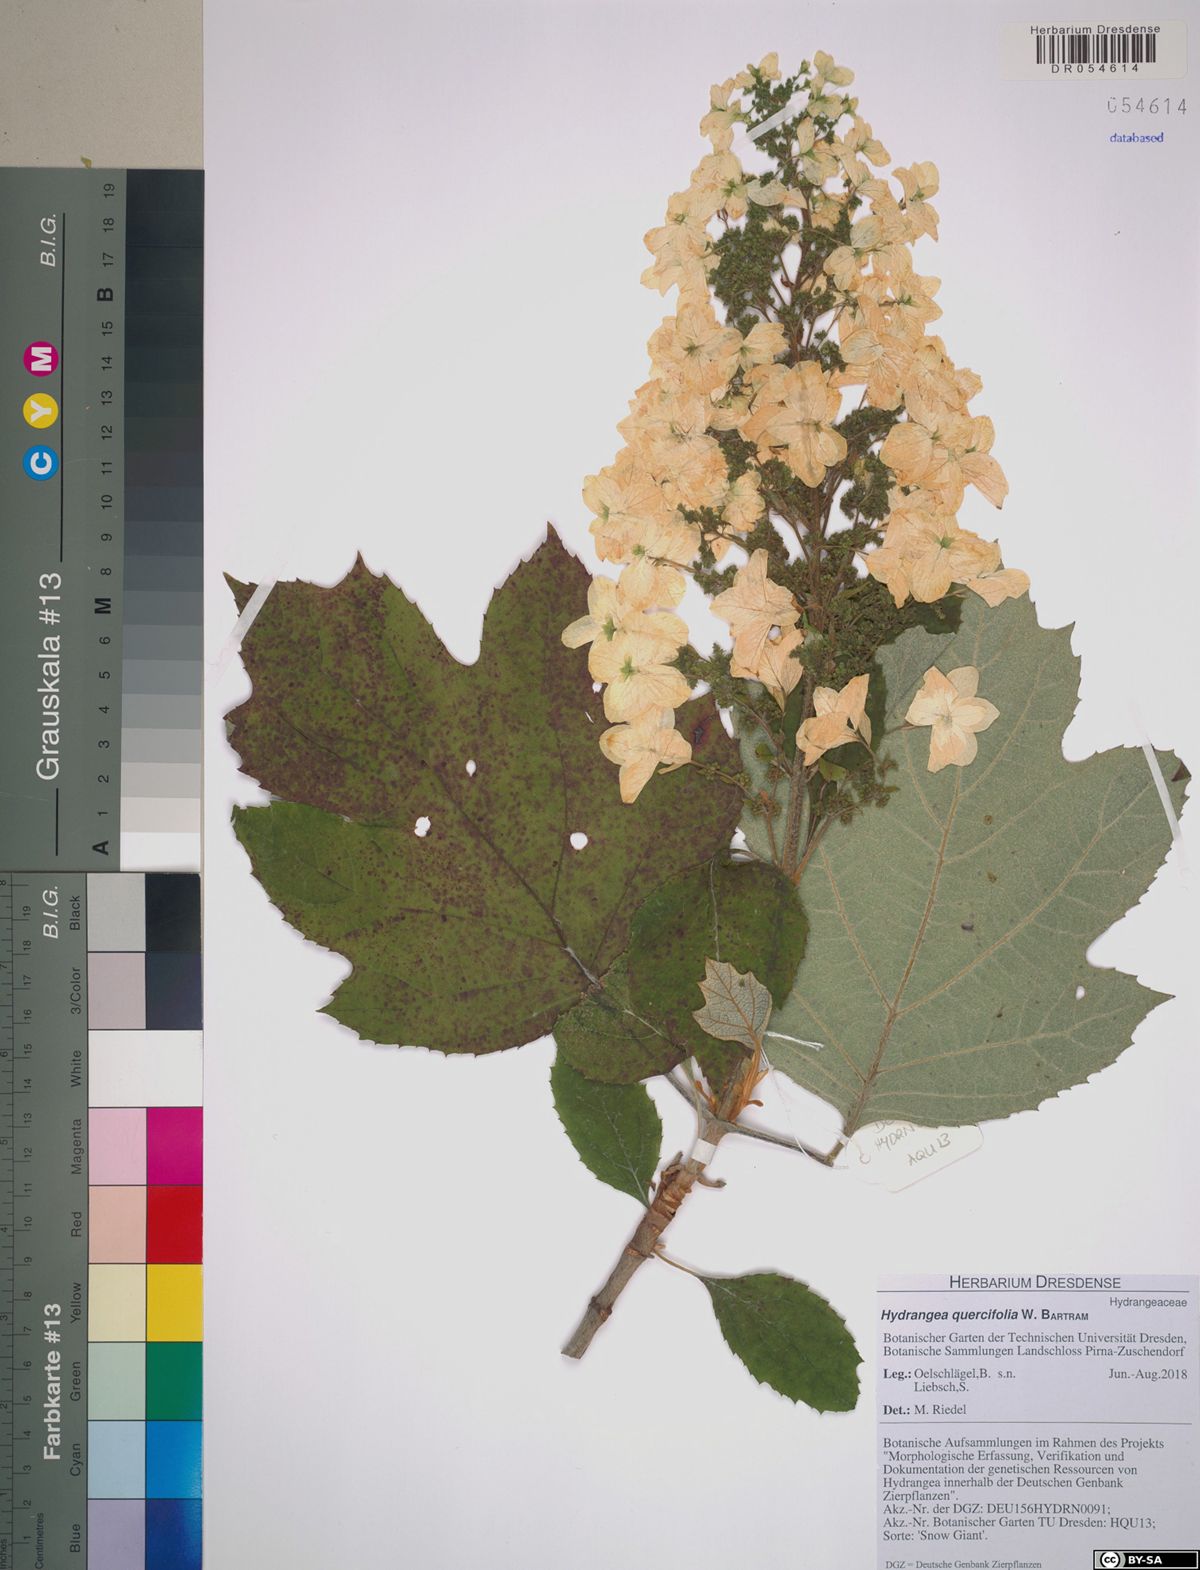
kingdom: Plantae
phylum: Tracheophyta
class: Magnoliopsida
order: Cornales
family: Hydrangeaceae
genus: Hydrangea
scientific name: Hydrangea quercifolia
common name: Oak-leaf hydrangea
